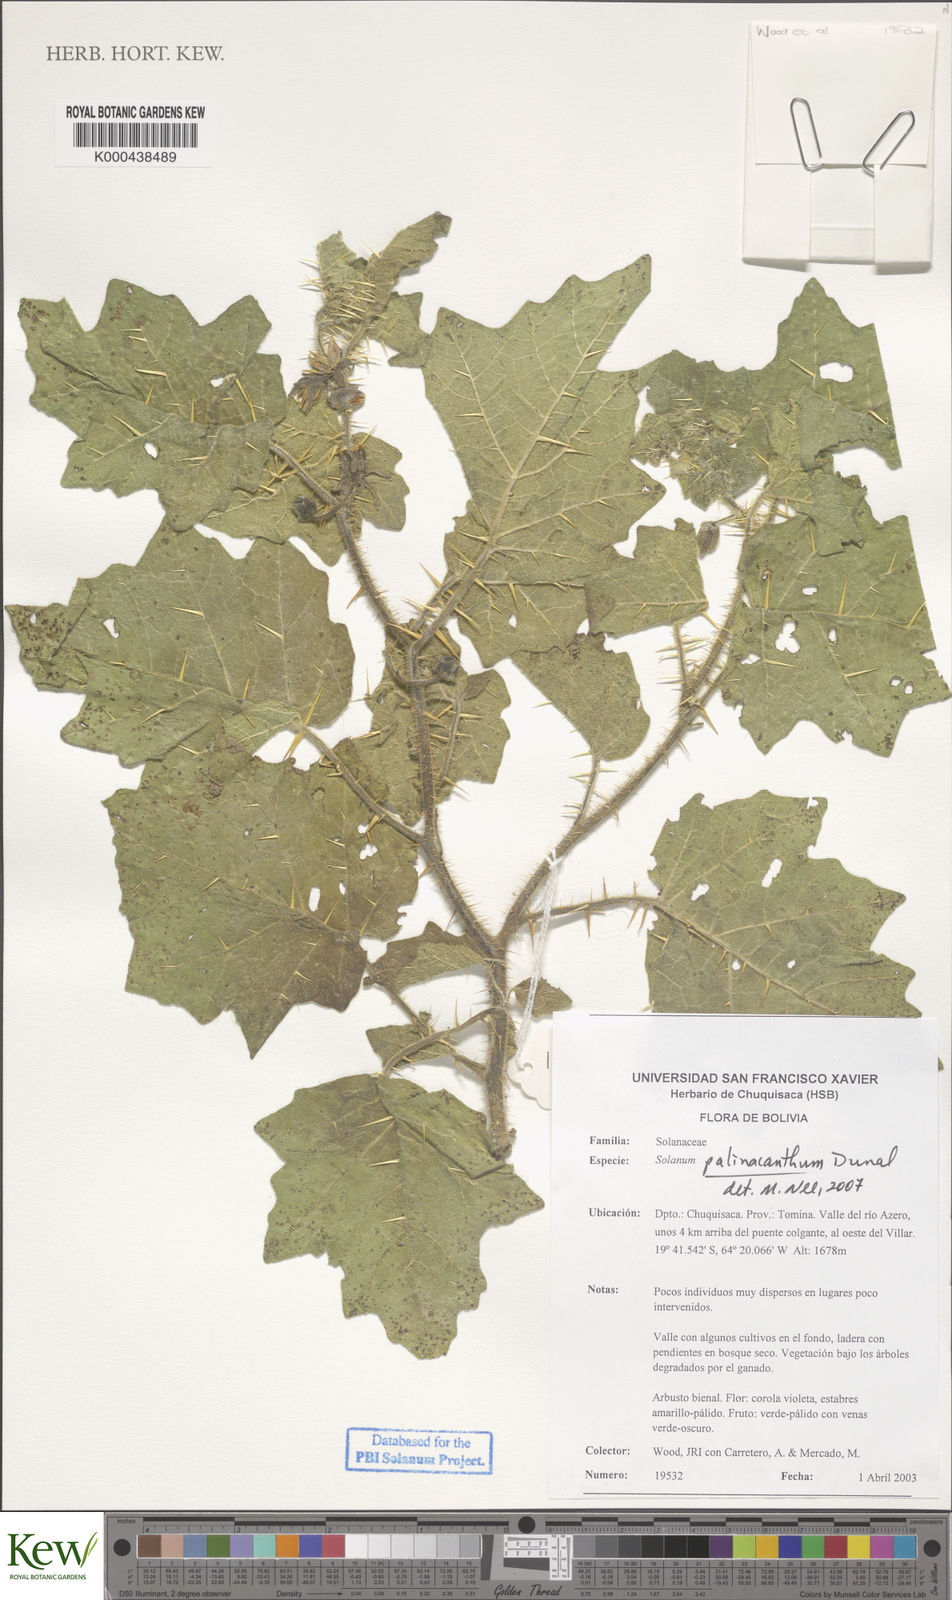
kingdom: Plantae
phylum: Tracheophyta
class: Magnoliopsida
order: Solanales
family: Solanaceae
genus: Solanum
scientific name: Solanum palinacanthum
